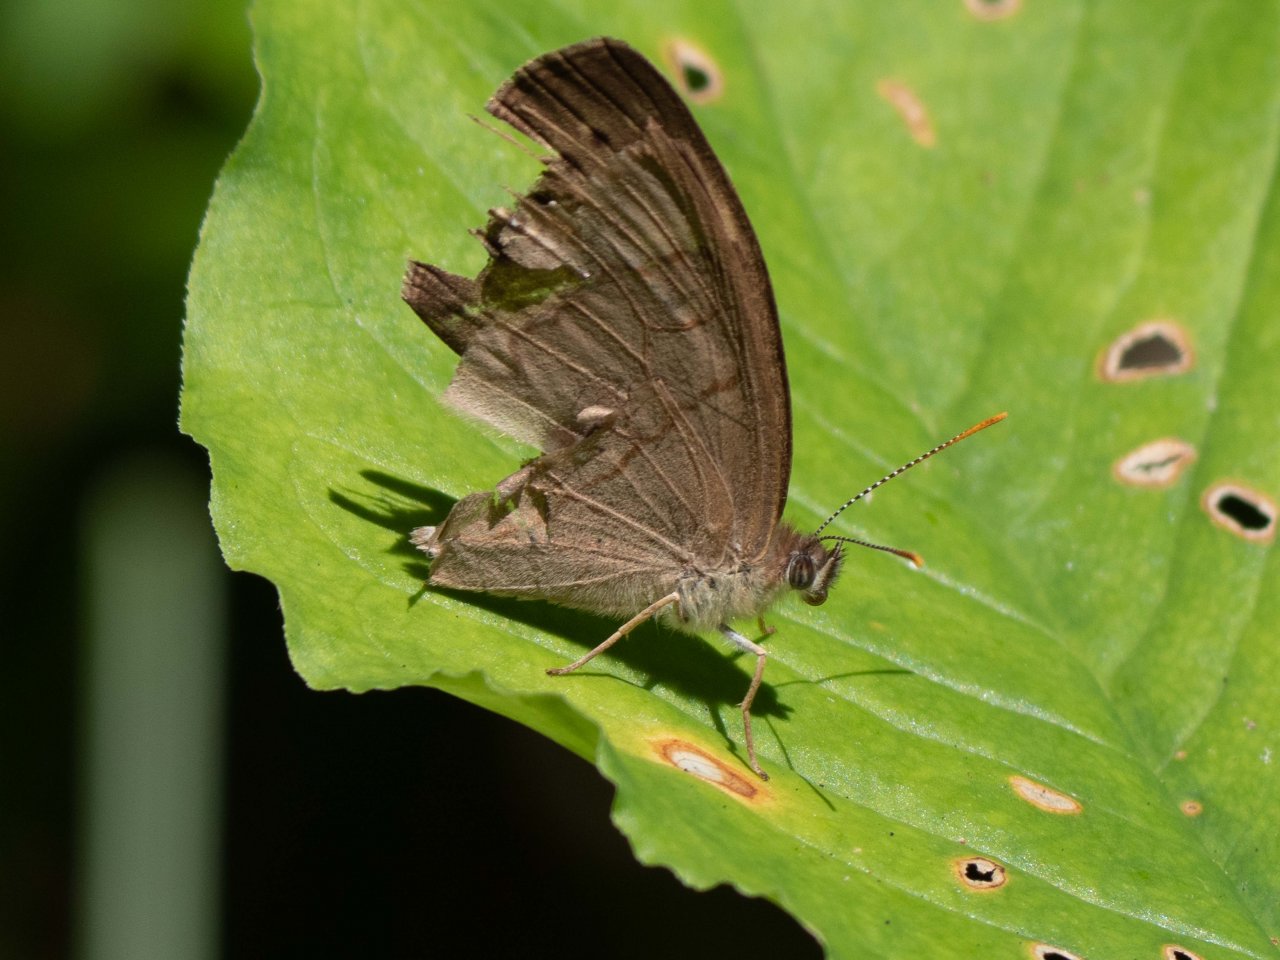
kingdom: Animalia
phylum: Arthropoda
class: Insecta
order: Lepidoptera
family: Nymphalidae
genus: Lethe
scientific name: Lethe eurydice
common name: Appalachian Eyed Brown
